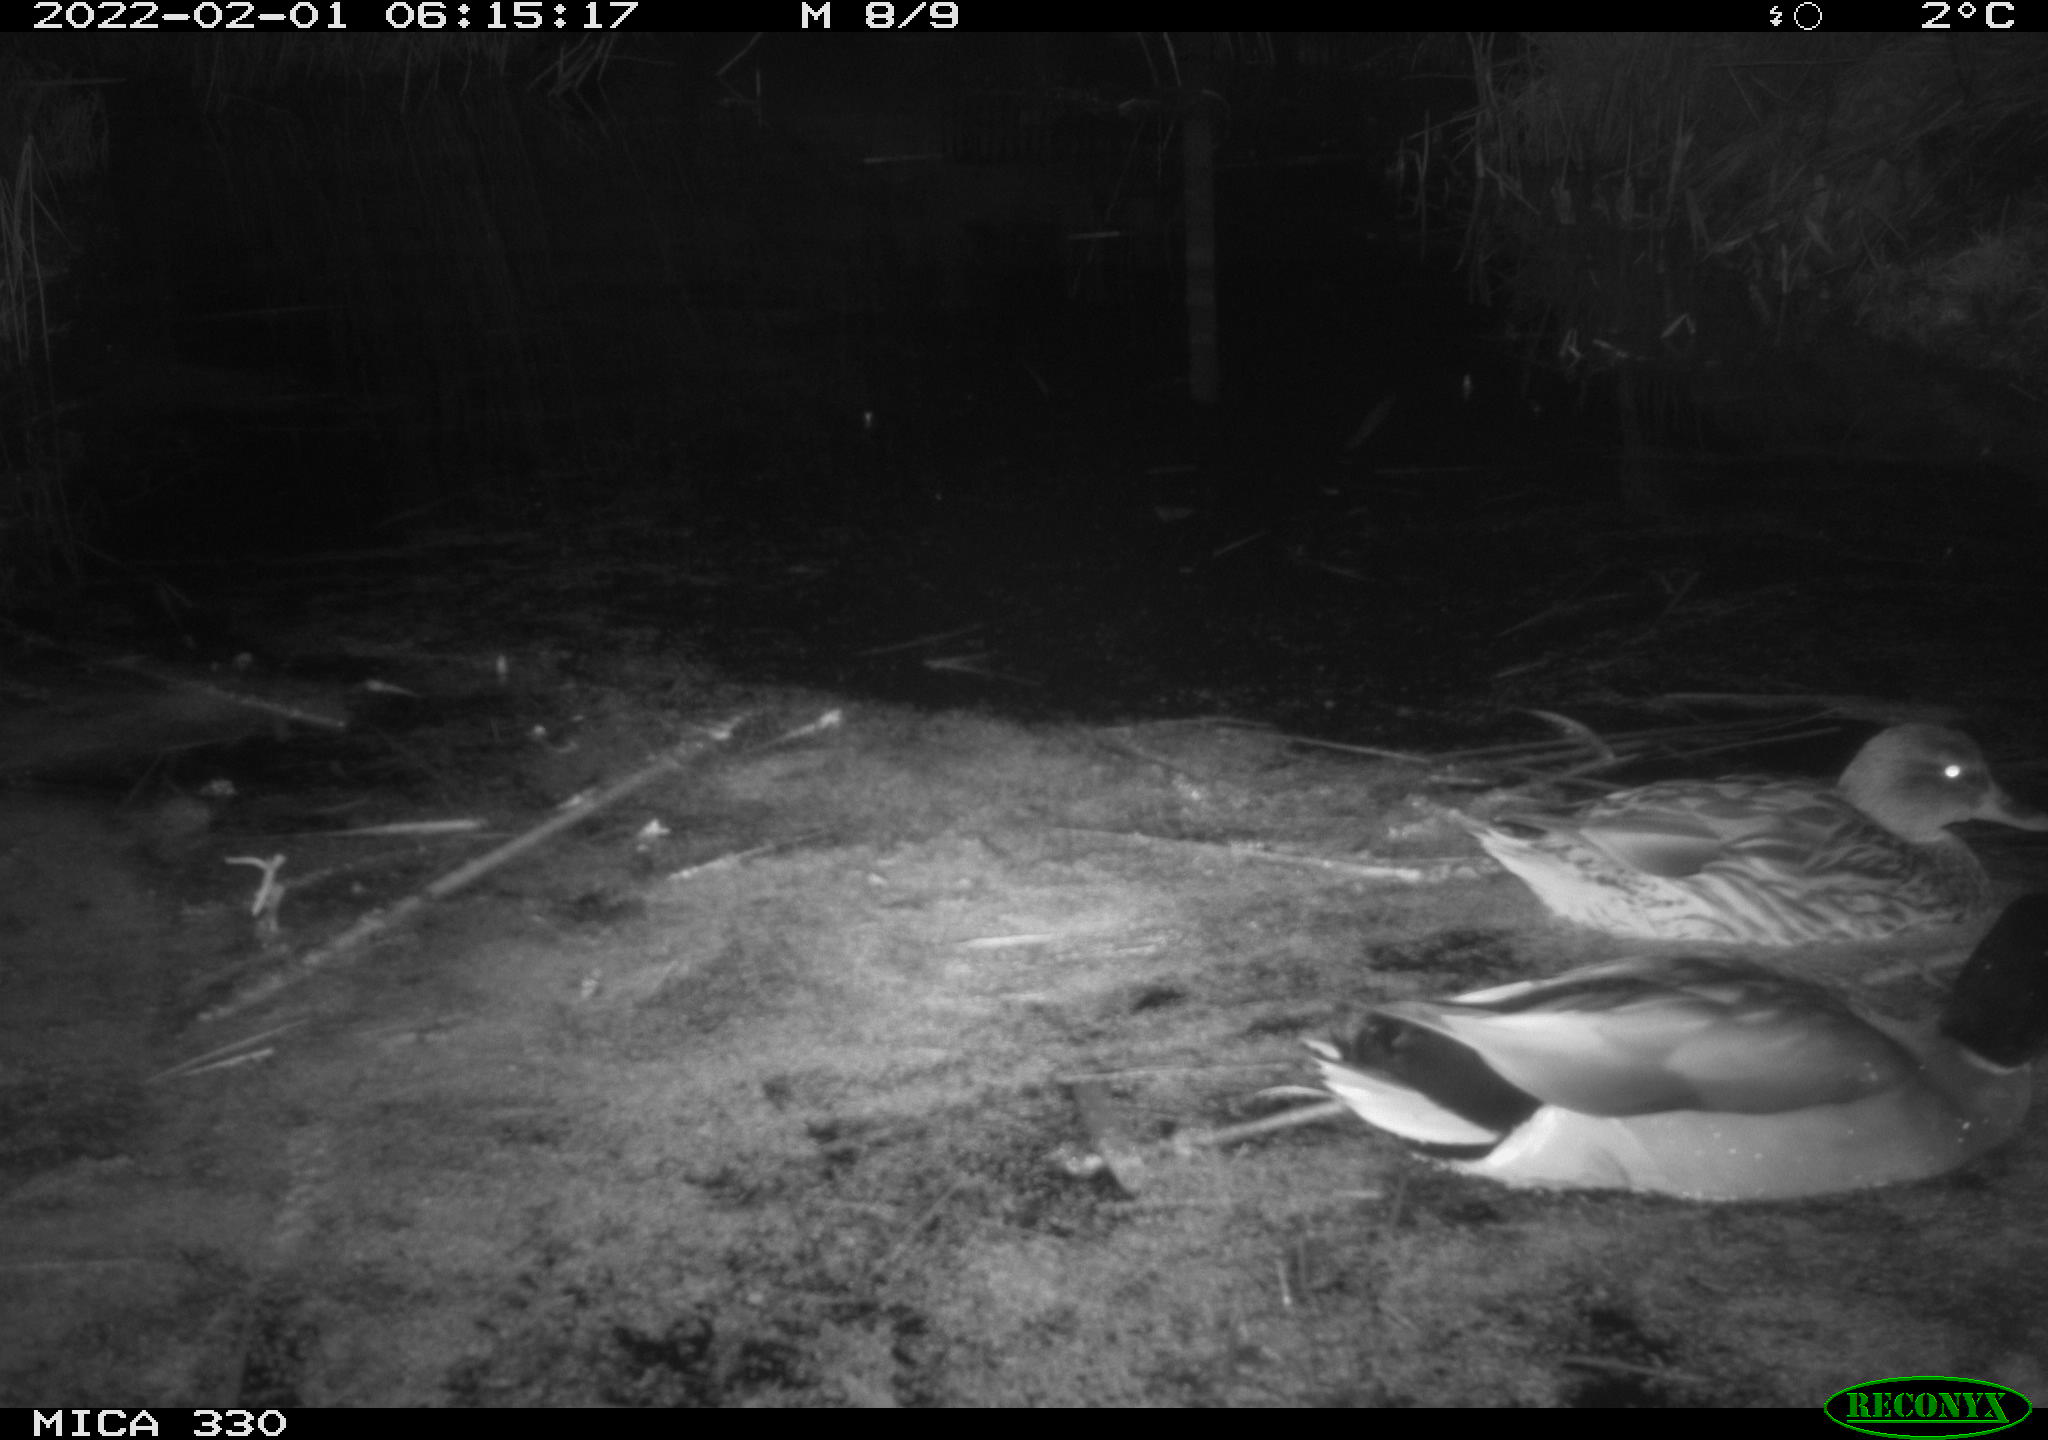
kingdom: Animalia
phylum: Chordata
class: Aves
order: Anseriformes
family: Anatidae
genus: Anas
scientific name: Anas platyrhynchos
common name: Mallard
